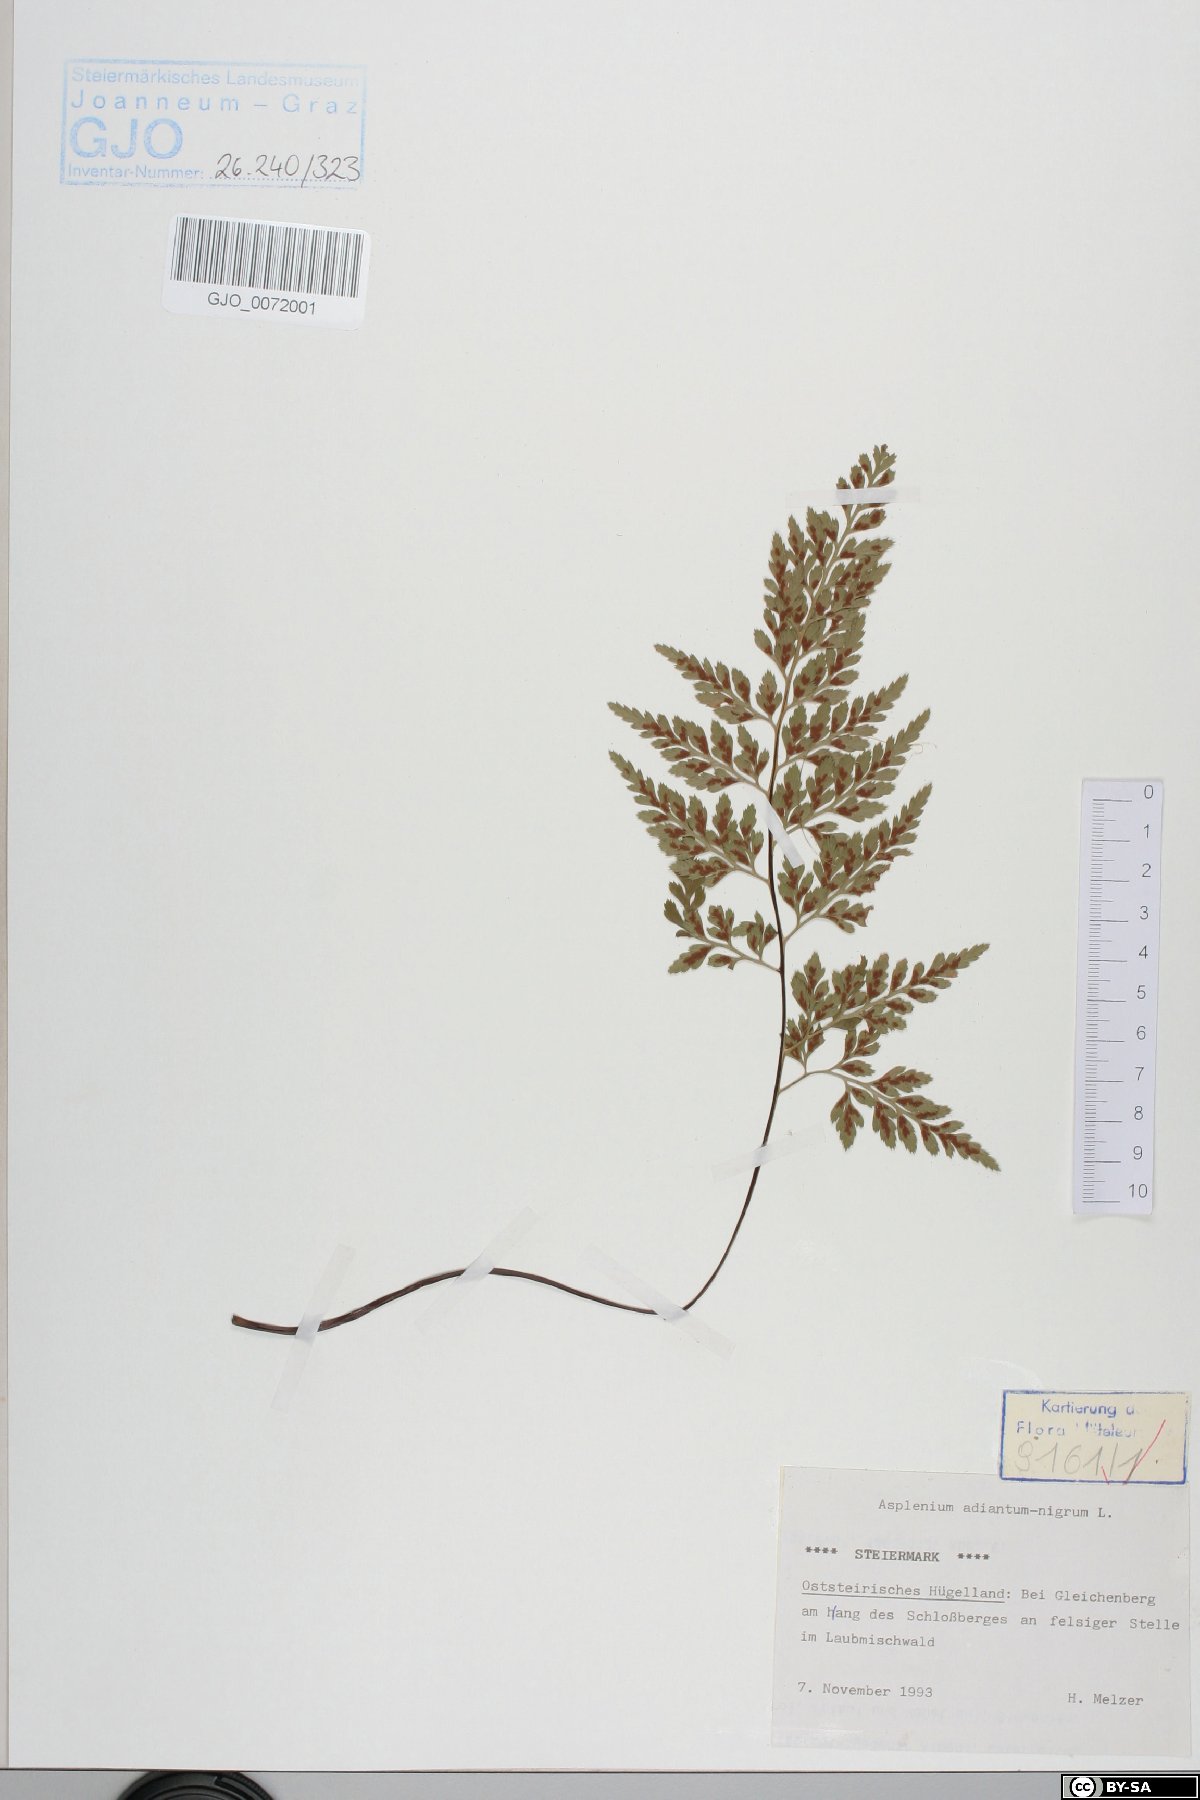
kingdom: Plantae
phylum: Tracheophyta
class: Polypodiopsida
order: Polypodiales
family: Aspleniaceae
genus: Asplenium
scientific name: Asplenium adiantum-nigrum
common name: Black spleenwort
